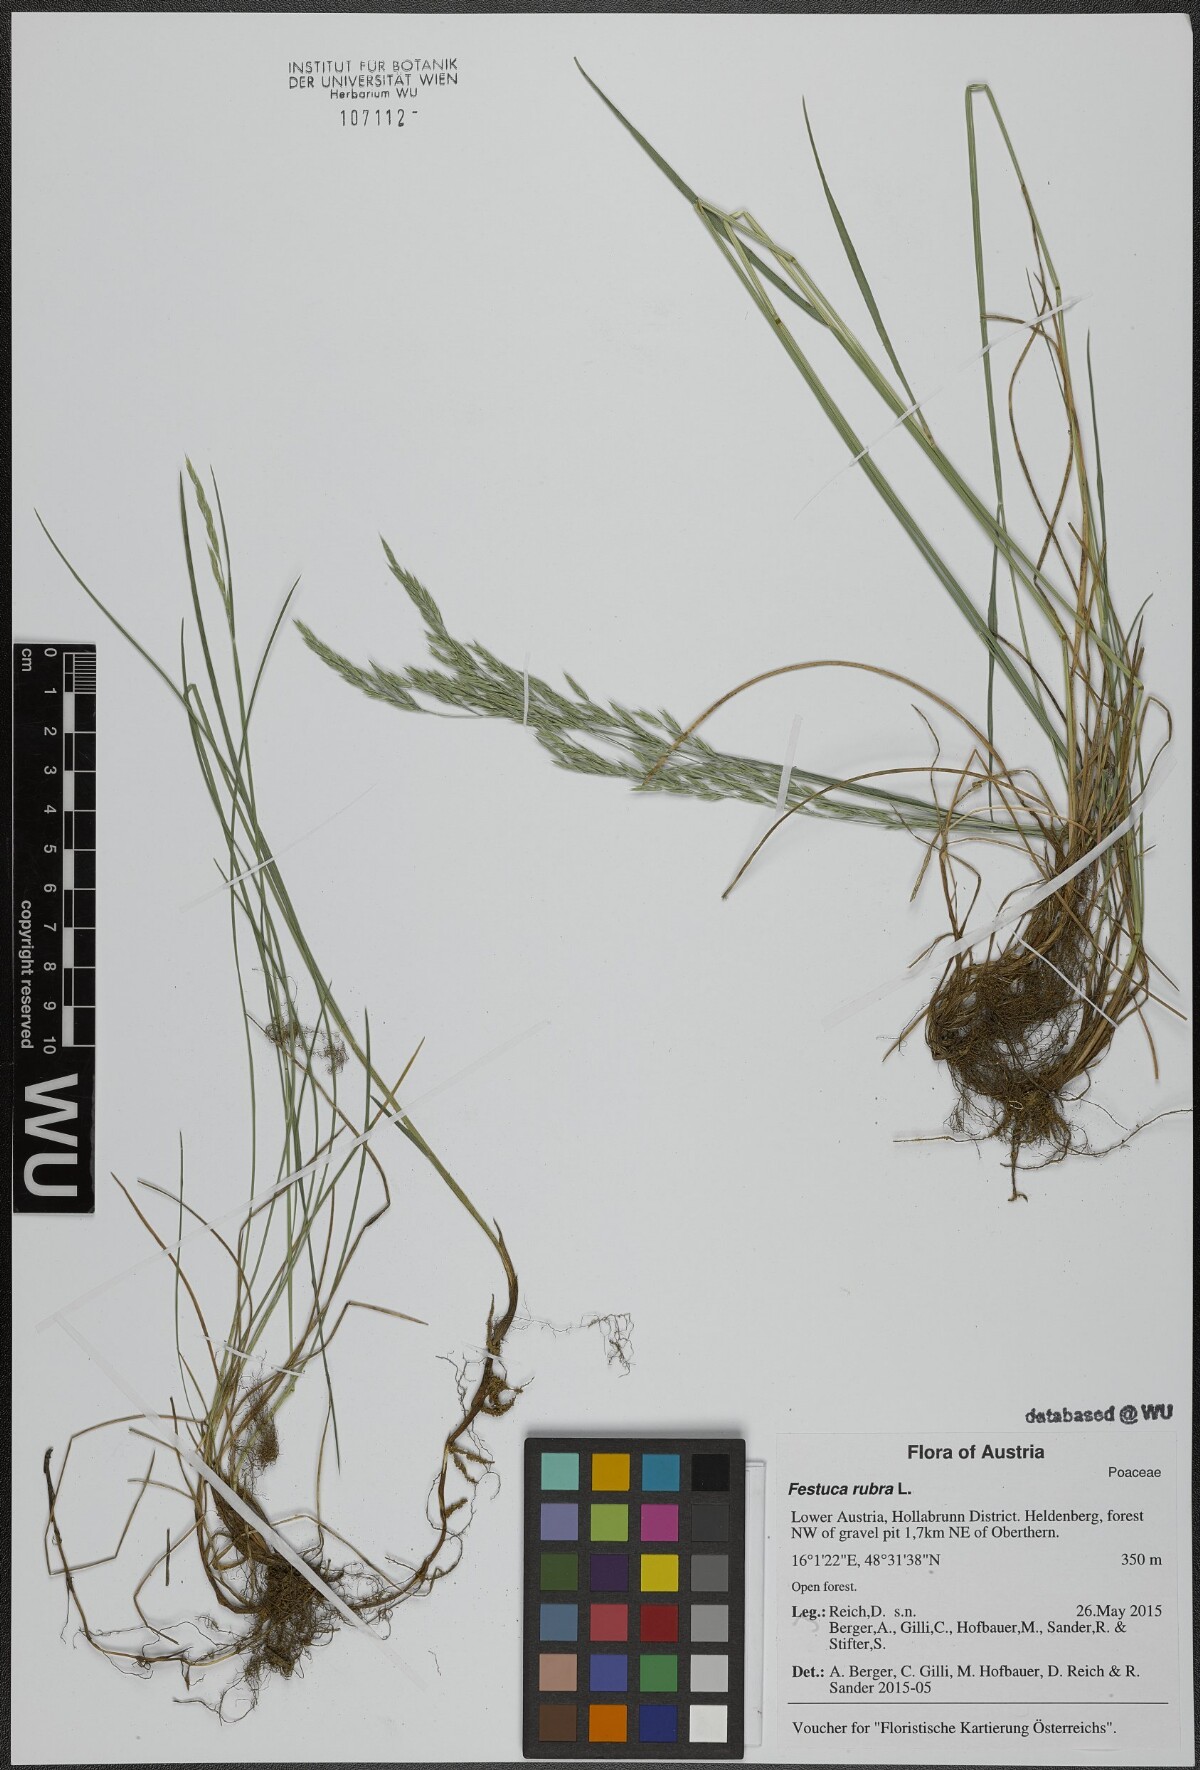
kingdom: Plantae
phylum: Tracheophyta
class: Liliopsida
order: Poales
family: Poaceae
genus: Festuca
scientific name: Festuca rubra
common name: Red fescue
